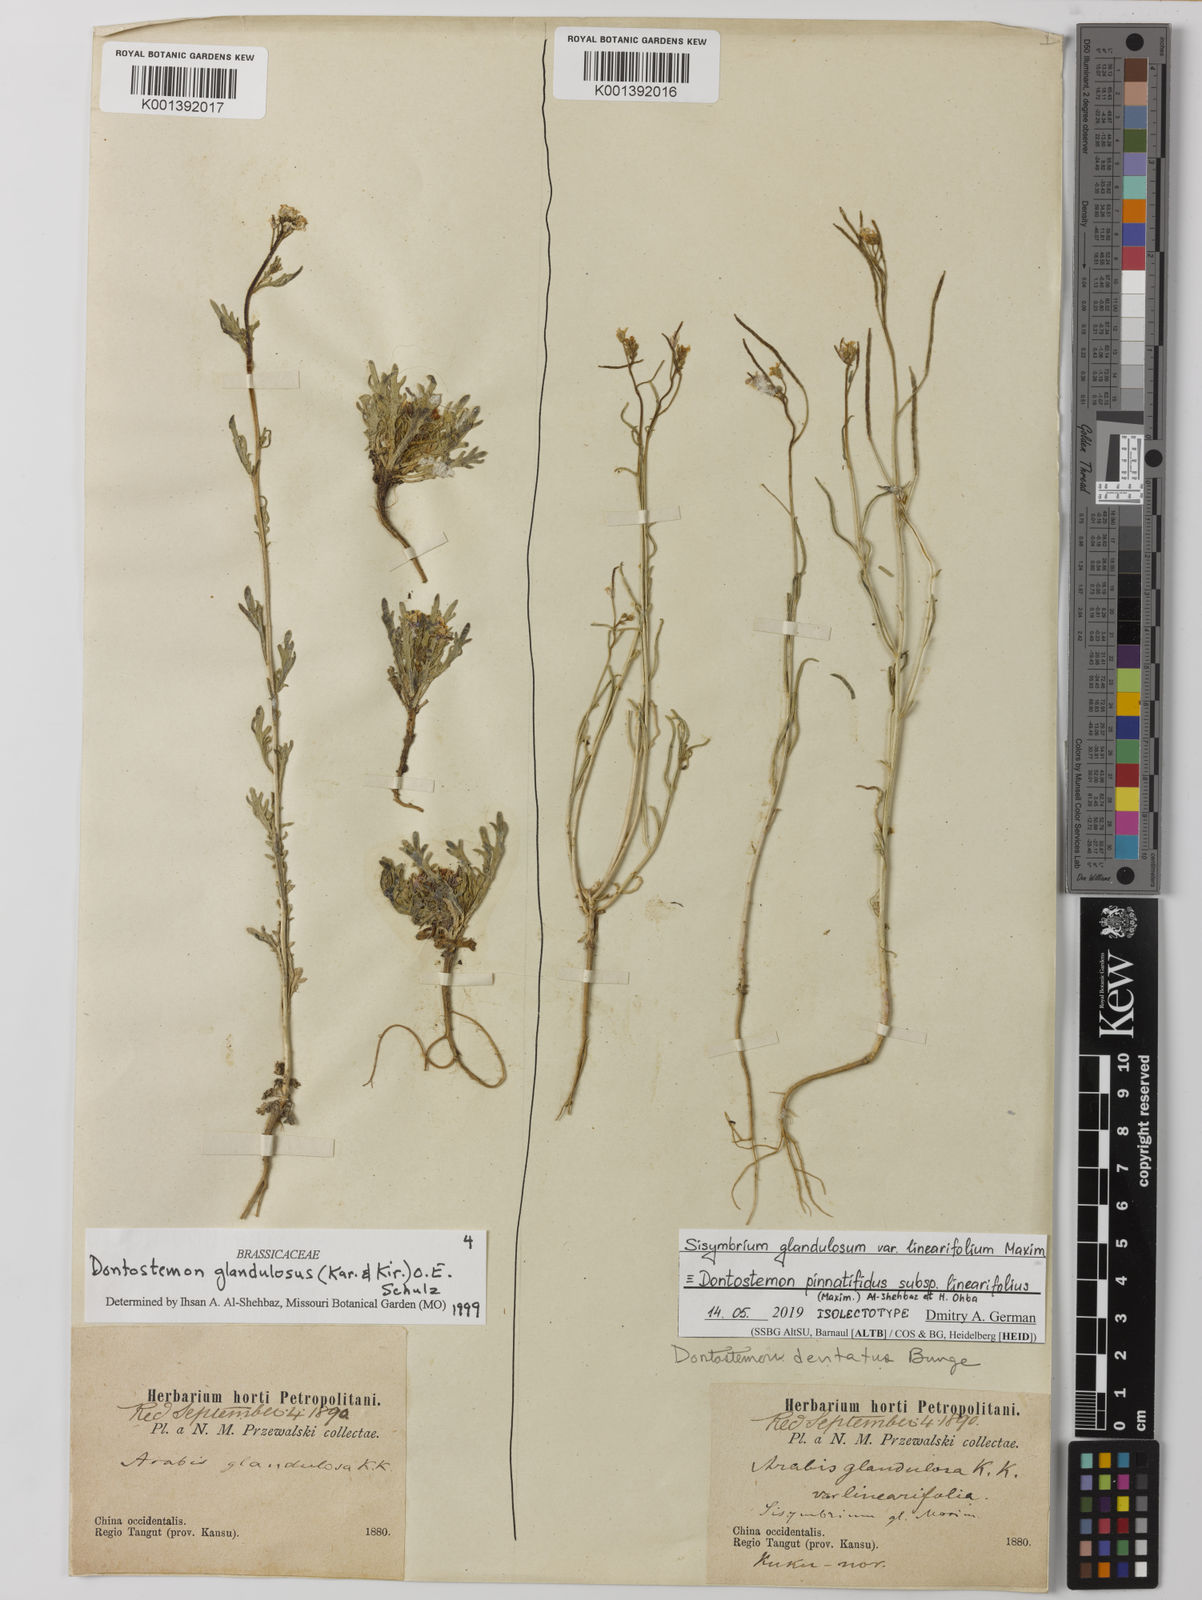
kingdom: Plantae
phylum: Tracheophyta
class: Magnoliopsida
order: Brassicales
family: Brassicaceae
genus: Dontostemon
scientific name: Dontostemon pinnatifidus
